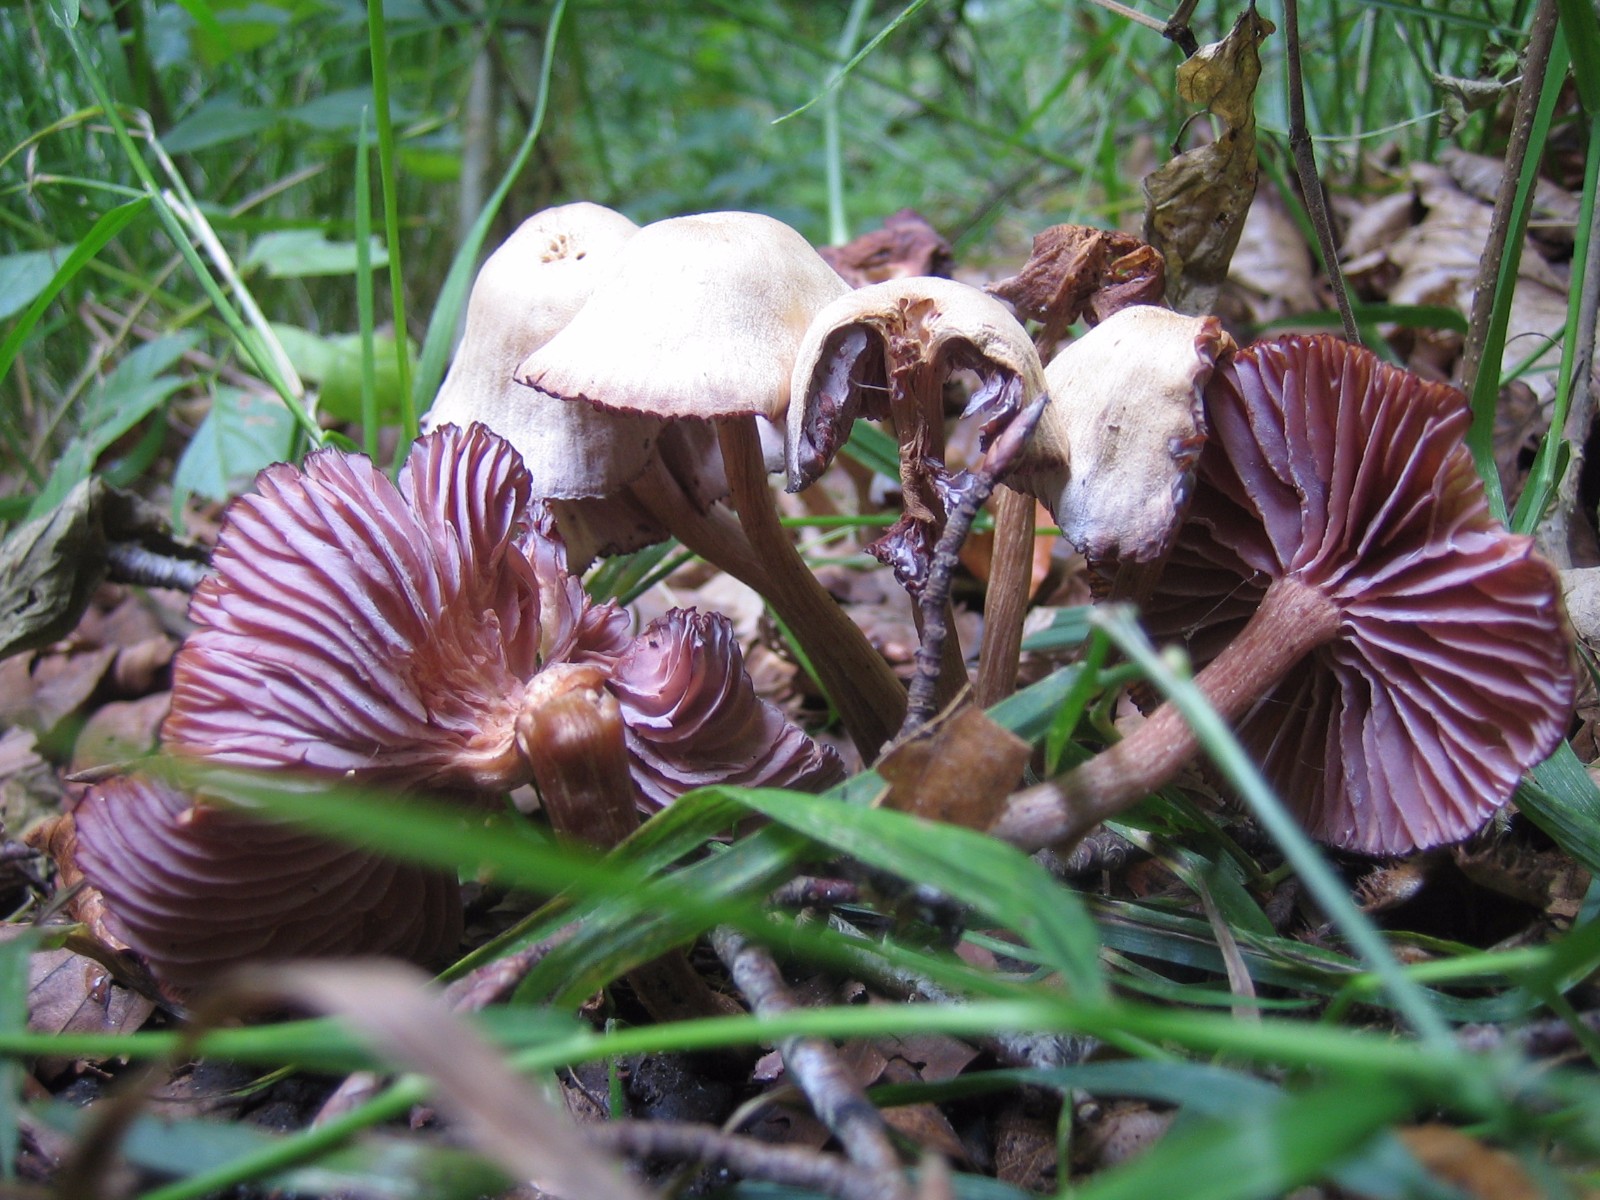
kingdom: Fungi
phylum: Basidiomycota
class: Agaricomycetes
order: Agaricales
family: Hydnangiaceae
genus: Laccaria
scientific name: Laccaria amethystina
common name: violet ametysthat
